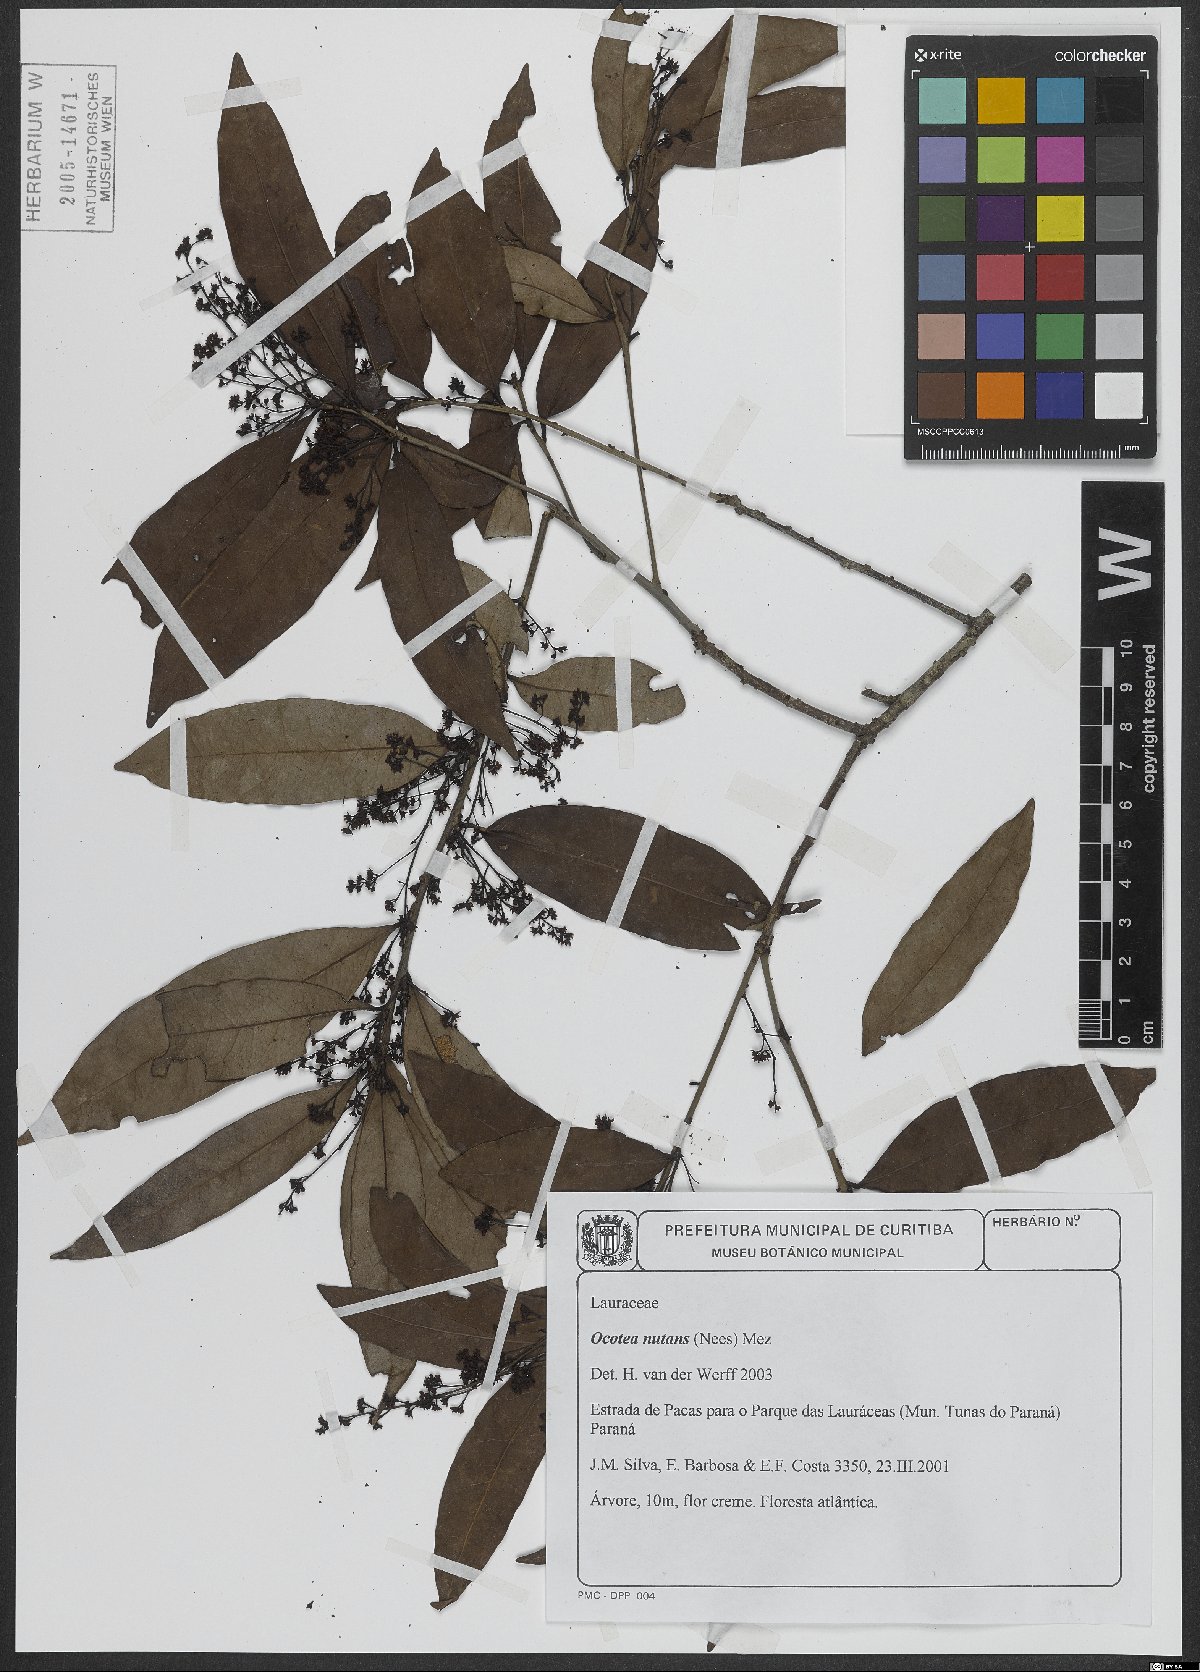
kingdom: Plantae
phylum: Tracheophyta
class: Magnoliopsida
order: Laurales
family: Lauraceae
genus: Mespilodaphne
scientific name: Mespilodaphne nutans
